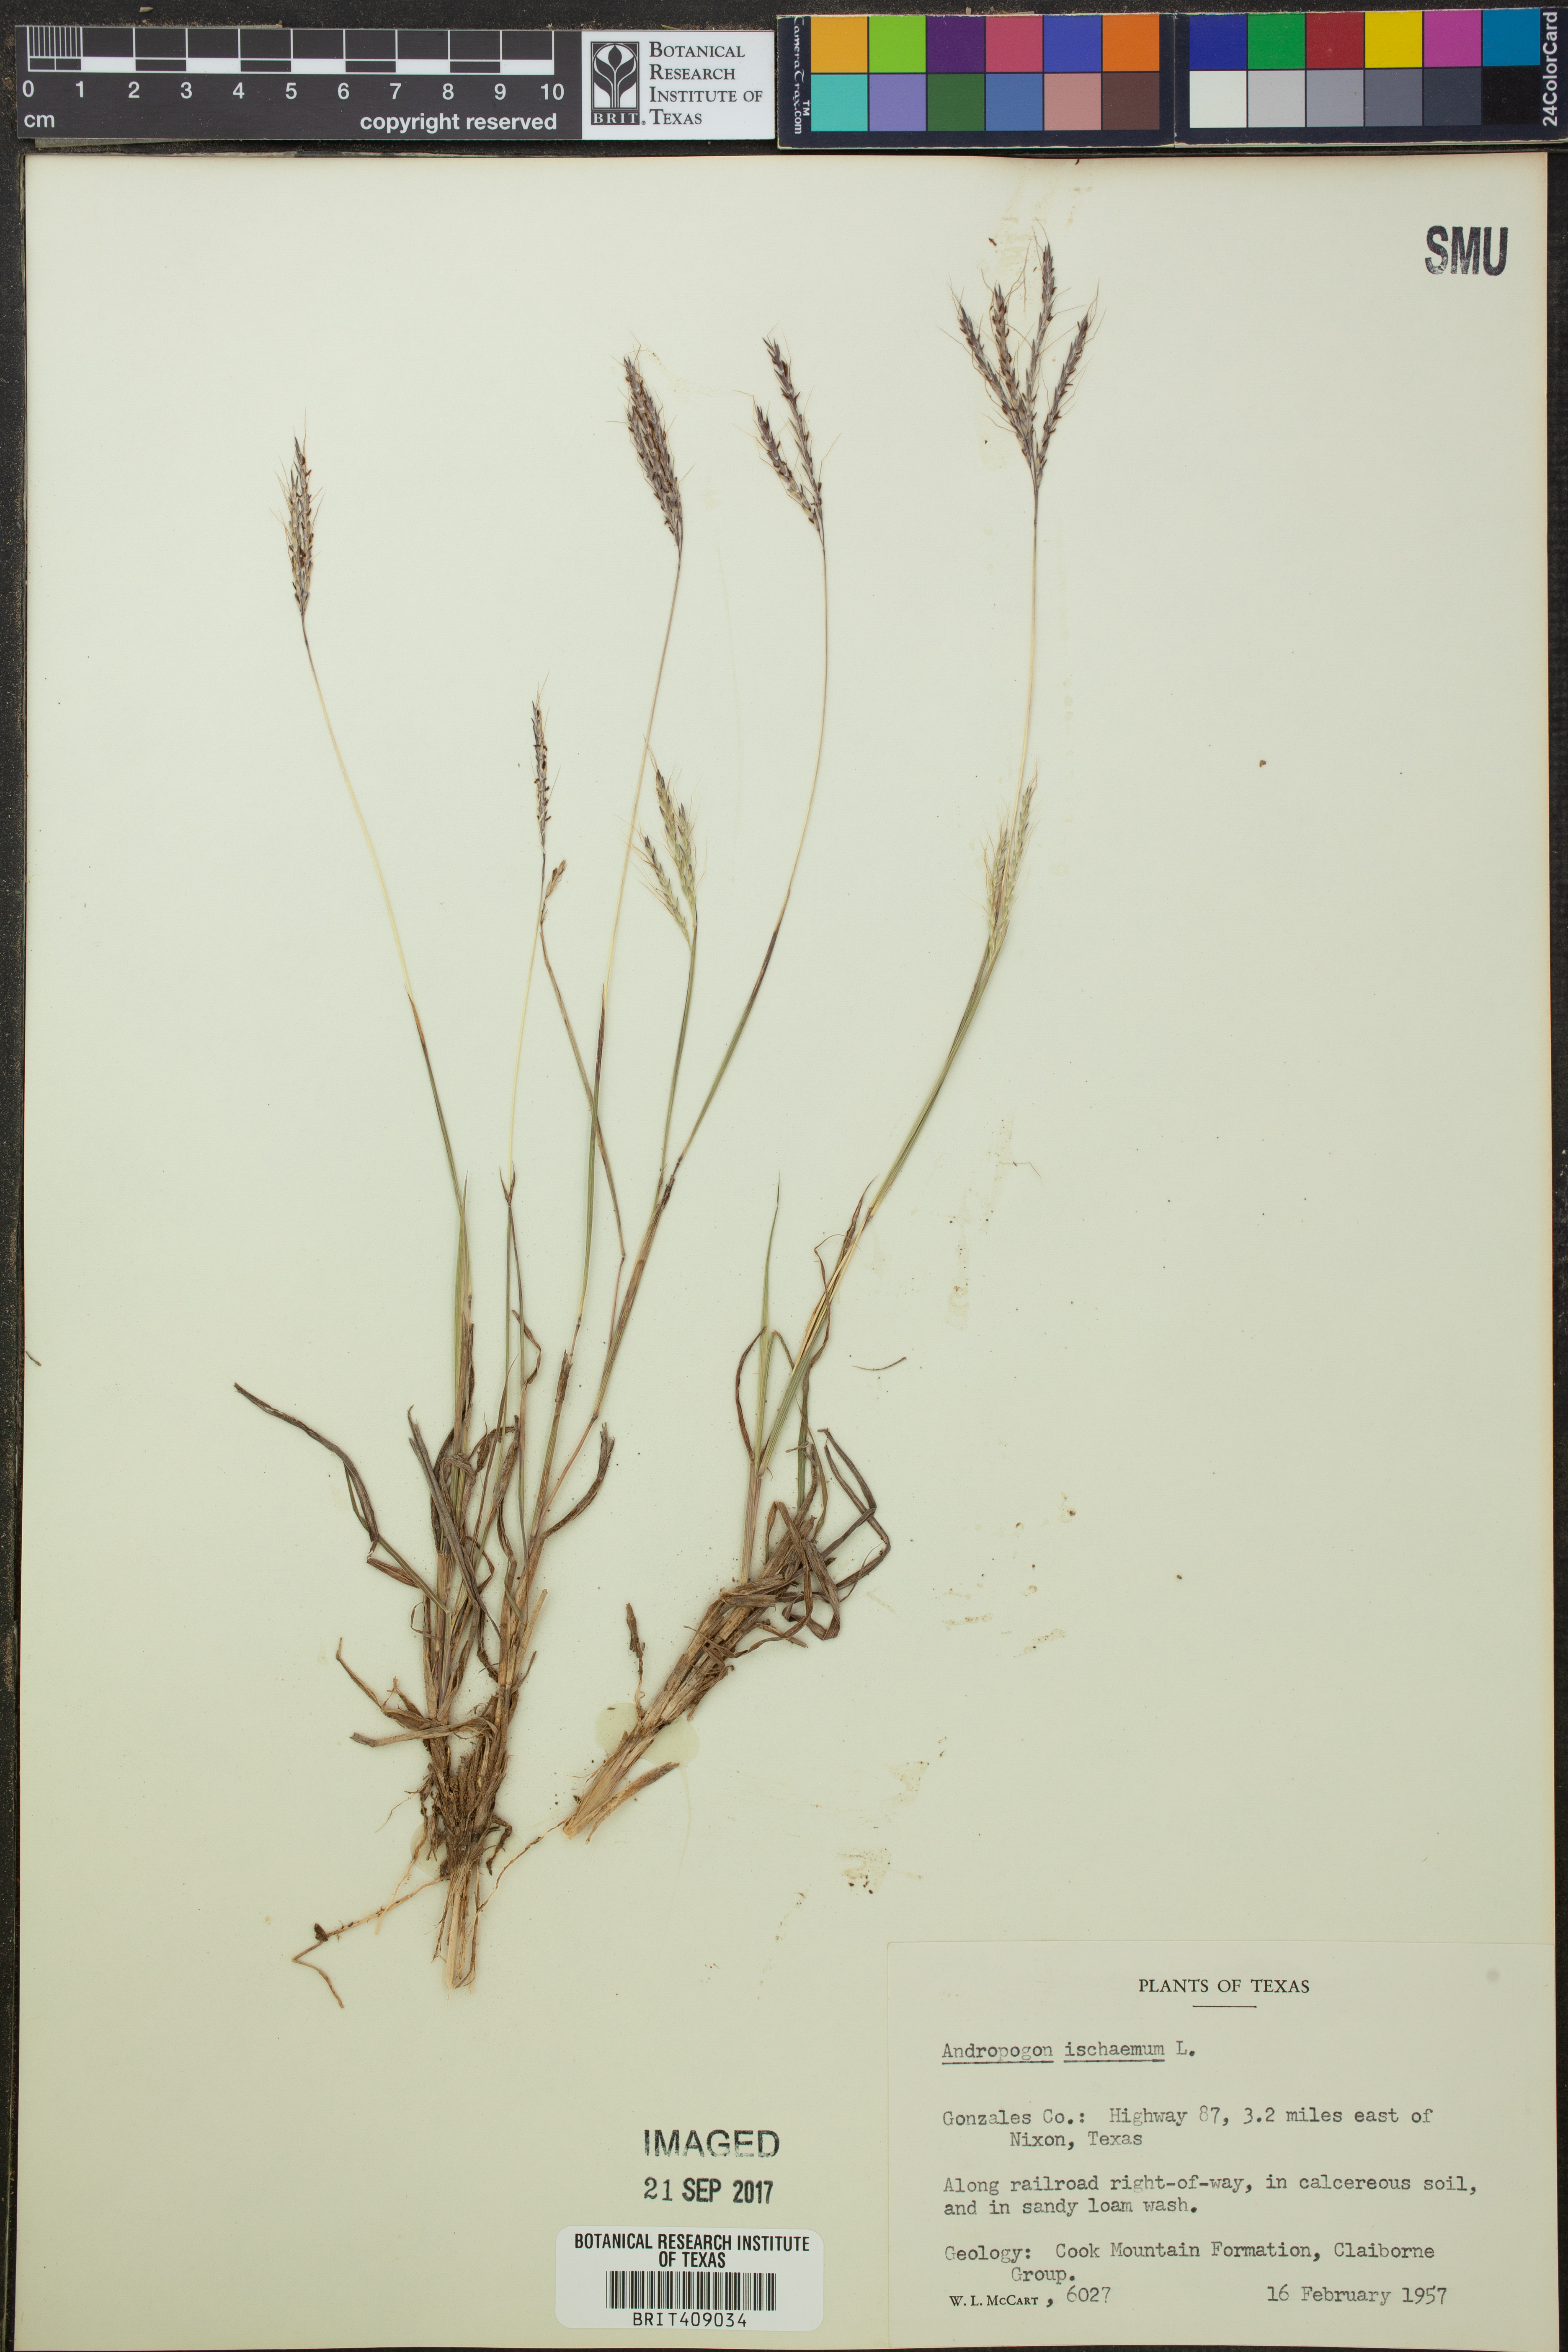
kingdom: Plantae
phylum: Tracheophyta
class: Liliopsida
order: Poales
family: Poaceae
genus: Andropogon
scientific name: Andropogon ischaemum
